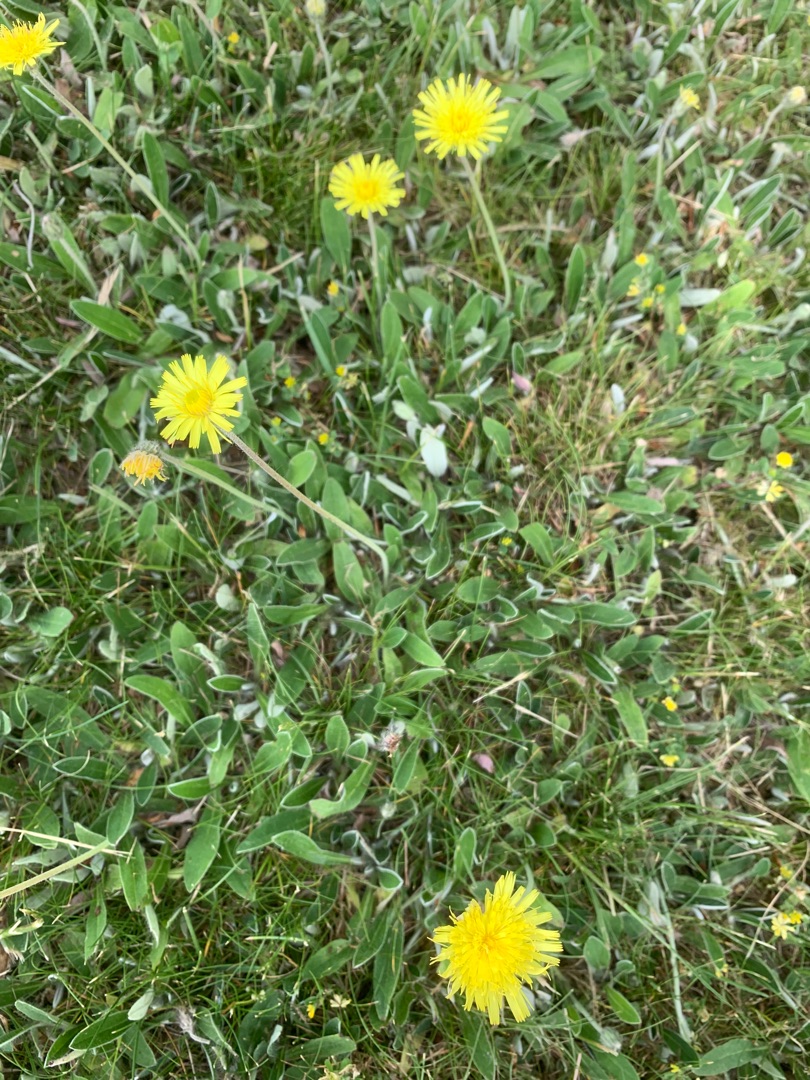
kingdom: Plantae
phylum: Tracheophyta
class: Magnoliopsida
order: Asterales
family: Asteraceae
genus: Pilosella
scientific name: Pilosella officinarum
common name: Håret høgeurt
